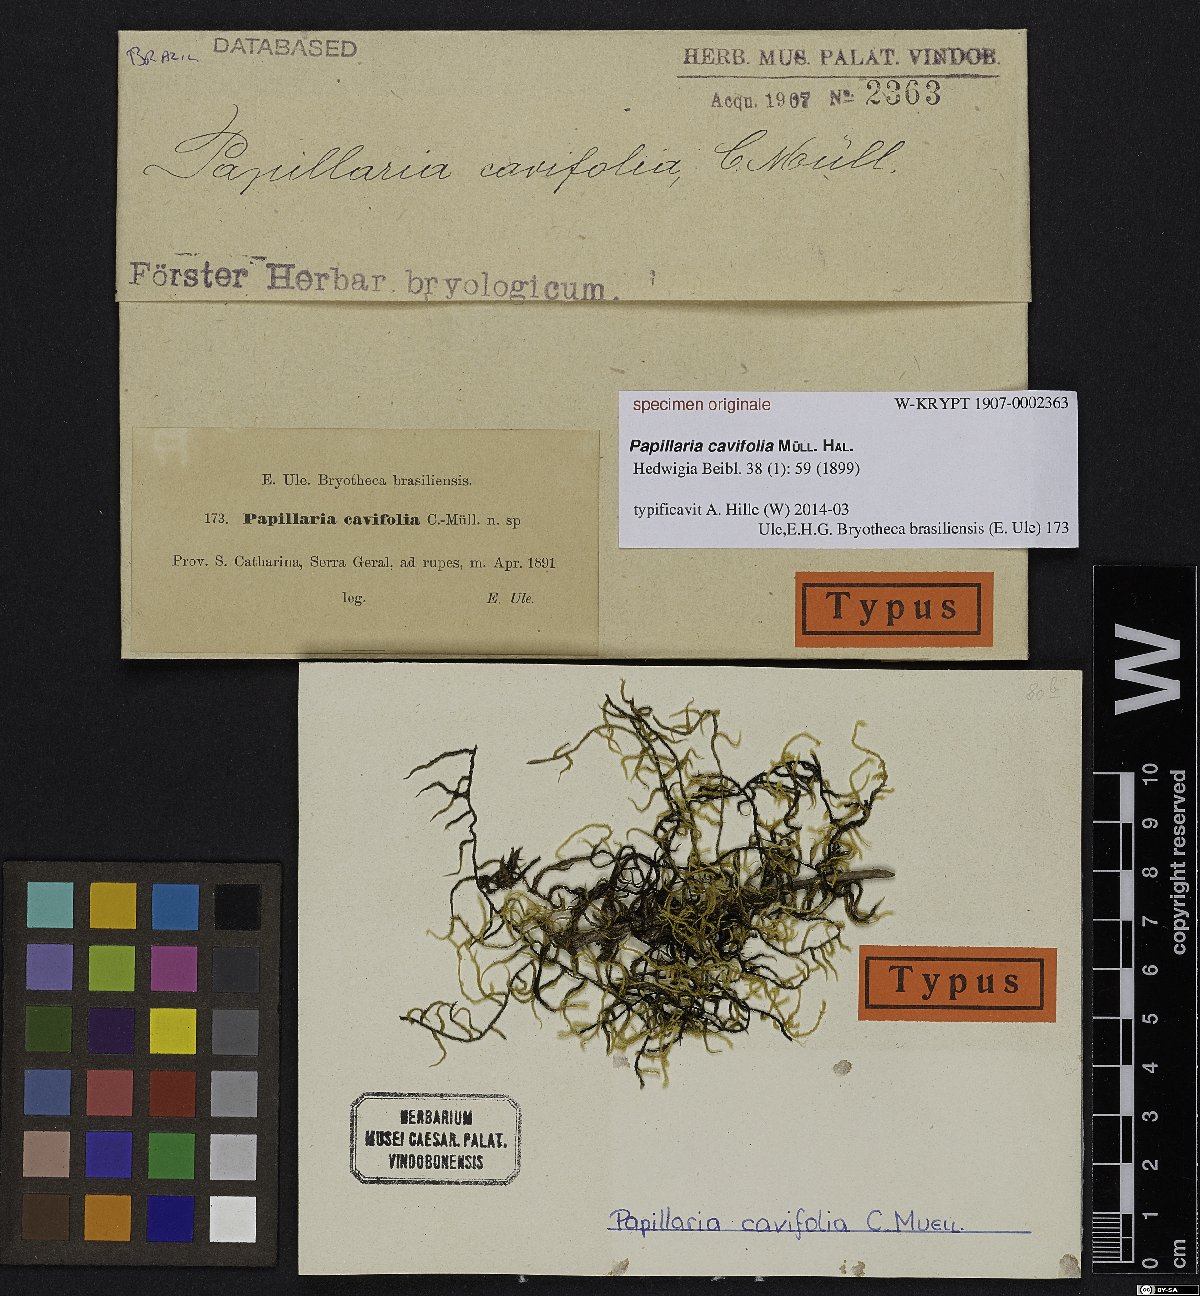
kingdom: Plantae
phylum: Bryophyta
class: Bryopsida
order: Hypnales
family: Meteoriaceae
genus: Papillaria
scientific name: Papillaria cavifolia
